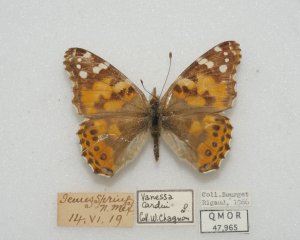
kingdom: Animalia
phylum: Arthropoda
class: Insecta
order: Lepidoptera
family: Nymphalidae
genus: Vanessa
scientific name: Vanessa cardui
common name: Painted Lady
